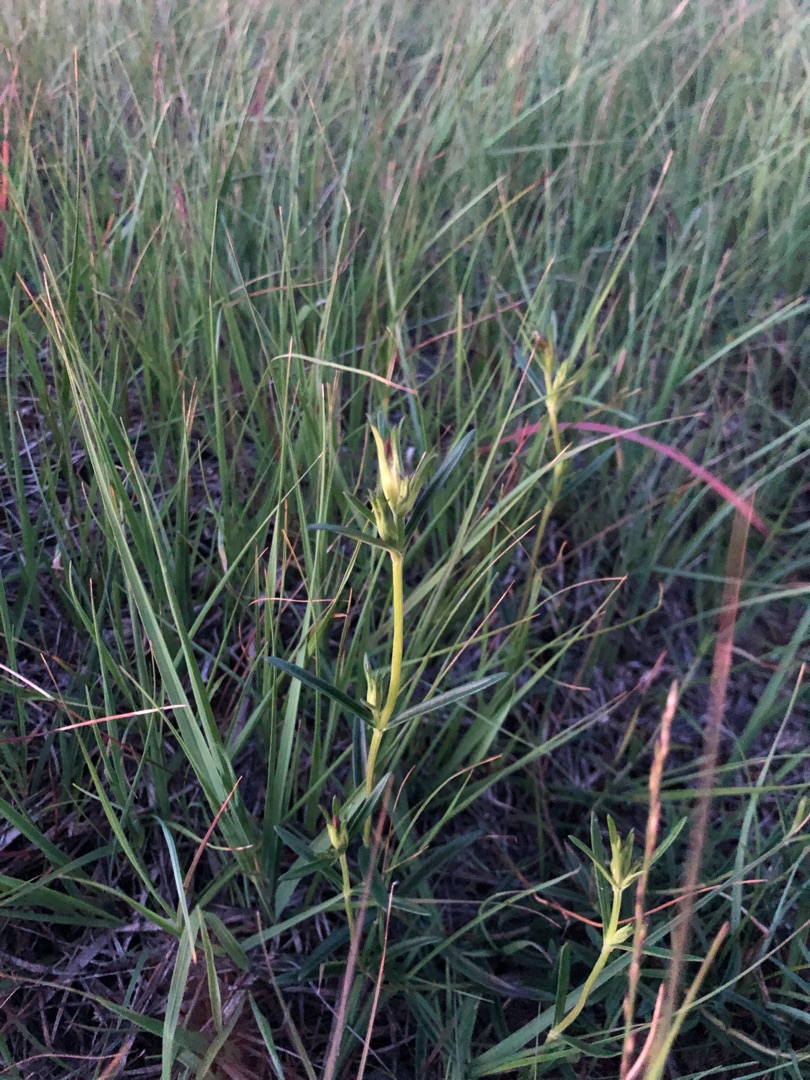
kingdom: Plantae
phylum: Tracheophyta
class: Magnoliopsida
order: Gentianales
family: Gentianaceae
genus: Gentiana
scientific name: Gentiana pneumonanthe
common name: Klokke-ensian
